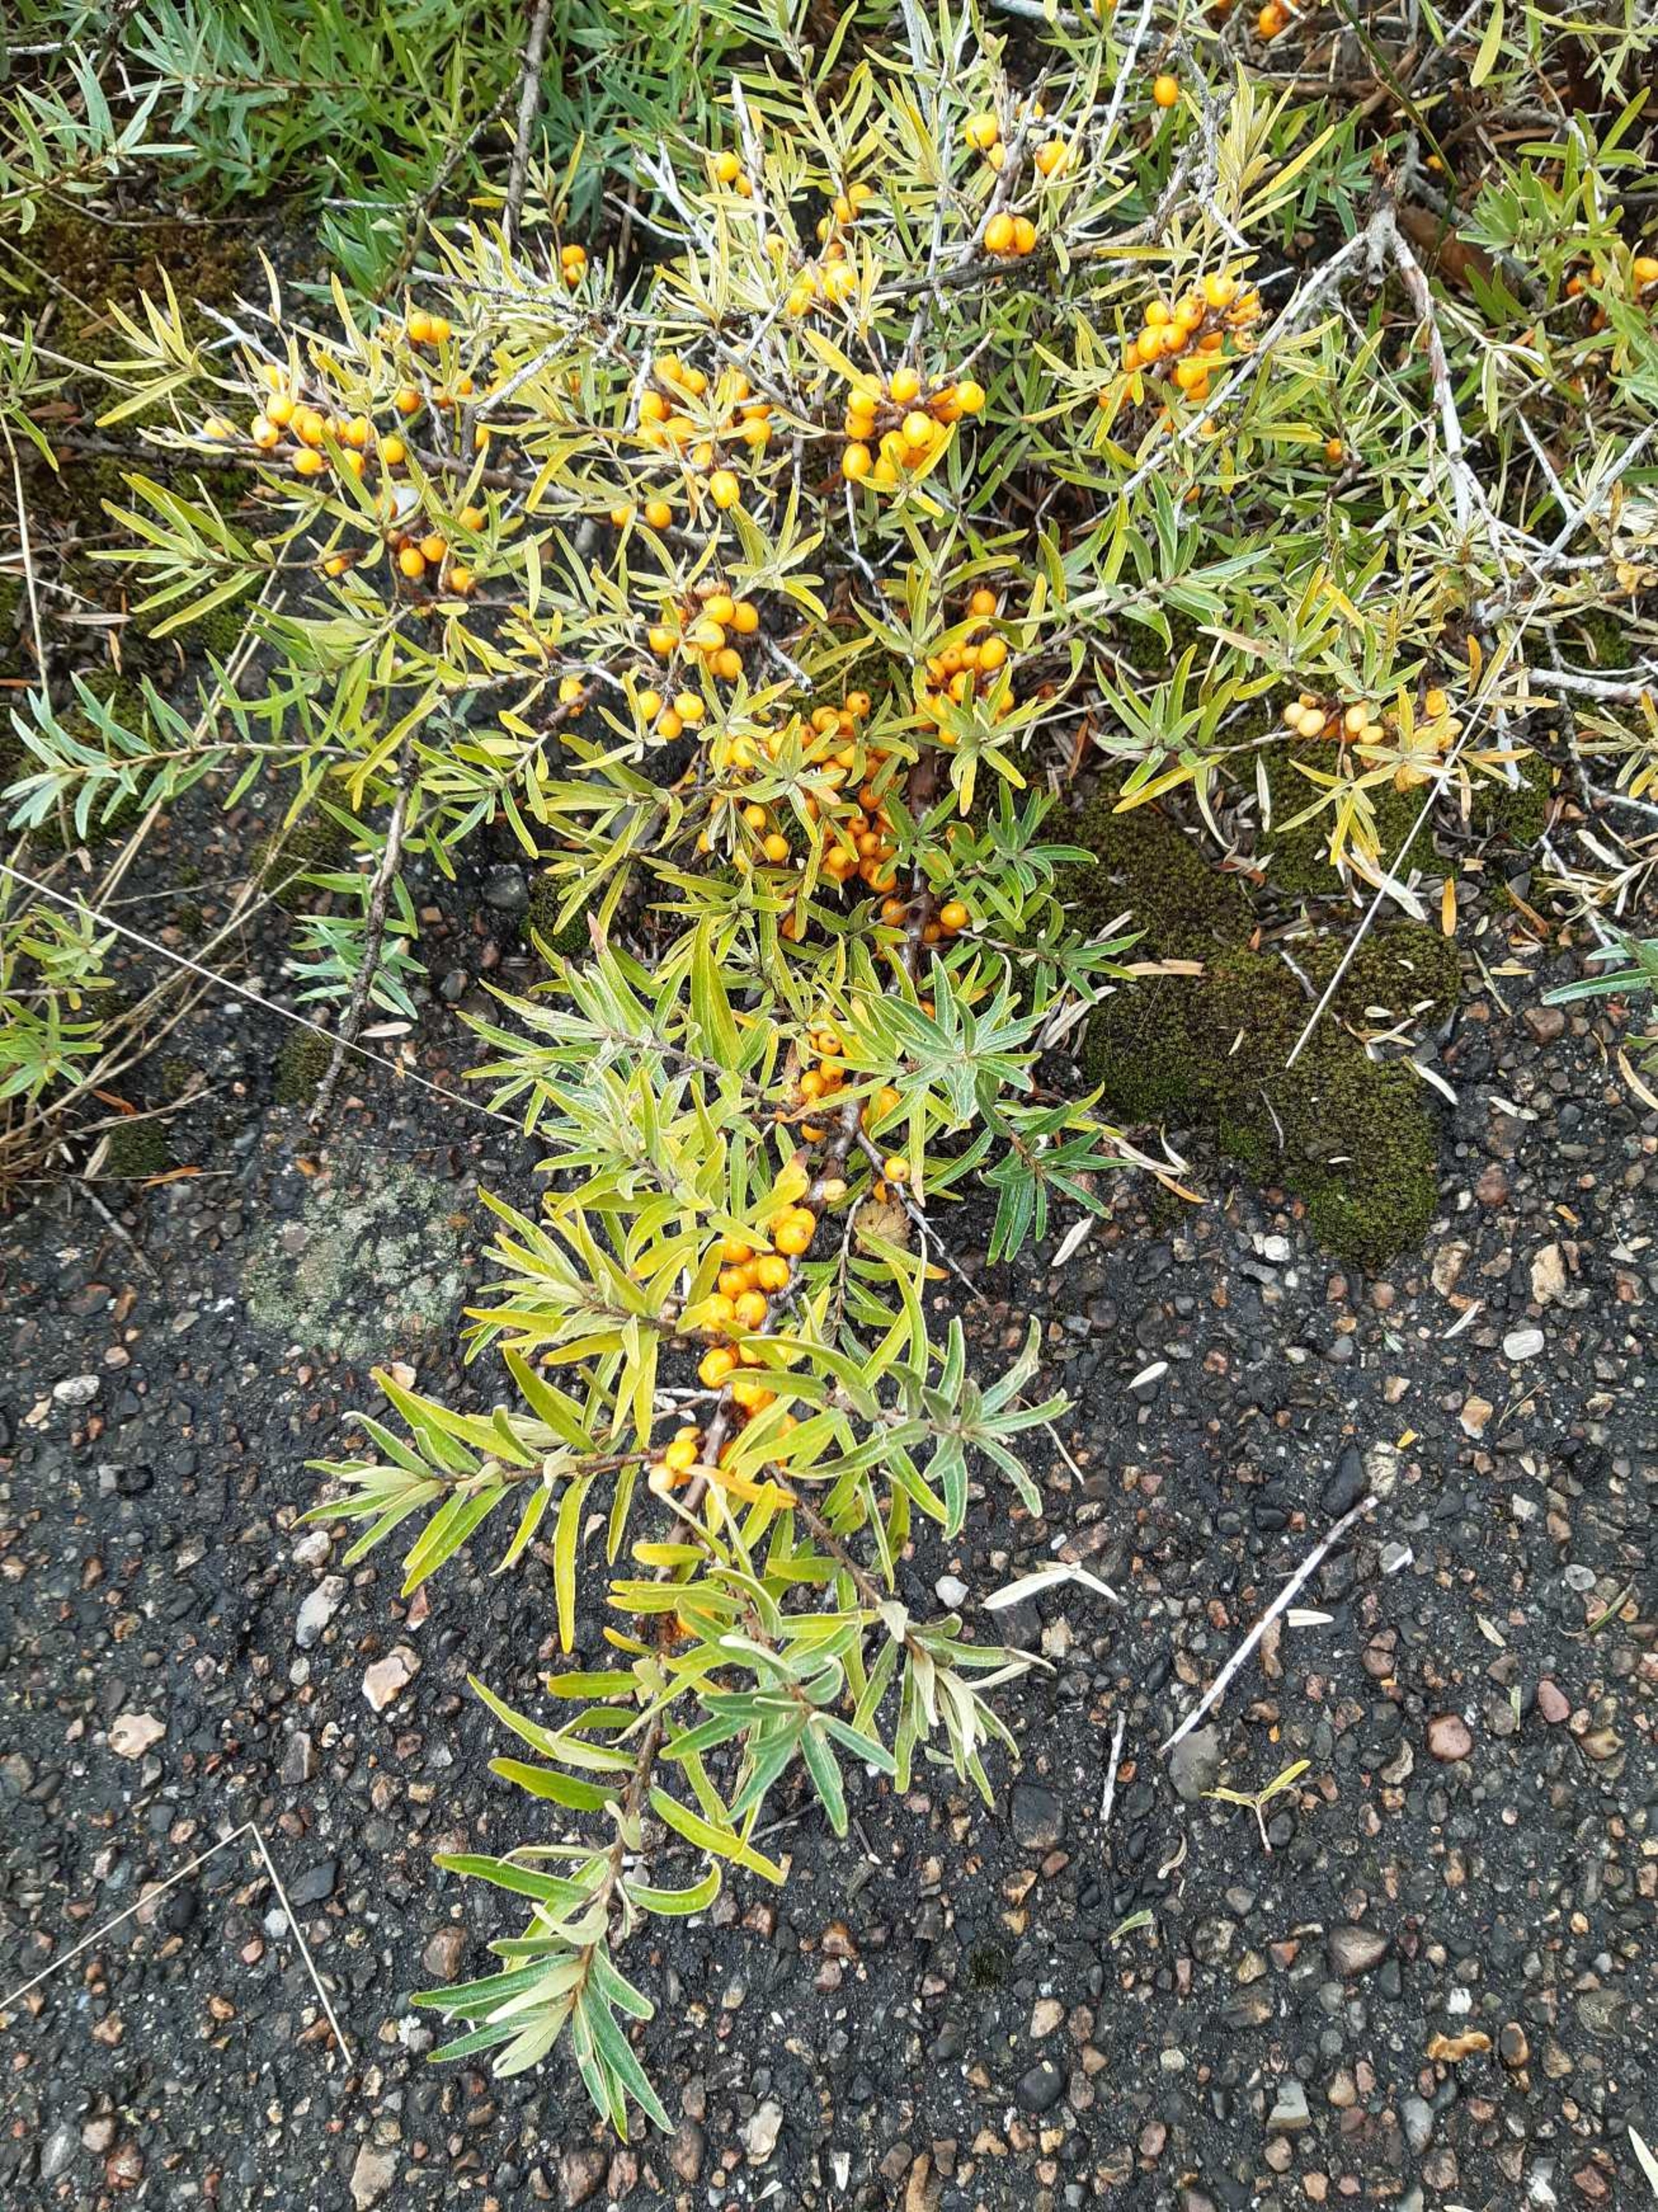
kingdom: Plantae
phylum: Tracheophyta
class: Magnoliopsida
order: Rosales
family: Elaeagnaceae
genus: Hippophae
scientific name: Hippophae rhamnoides
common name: Havtorn
